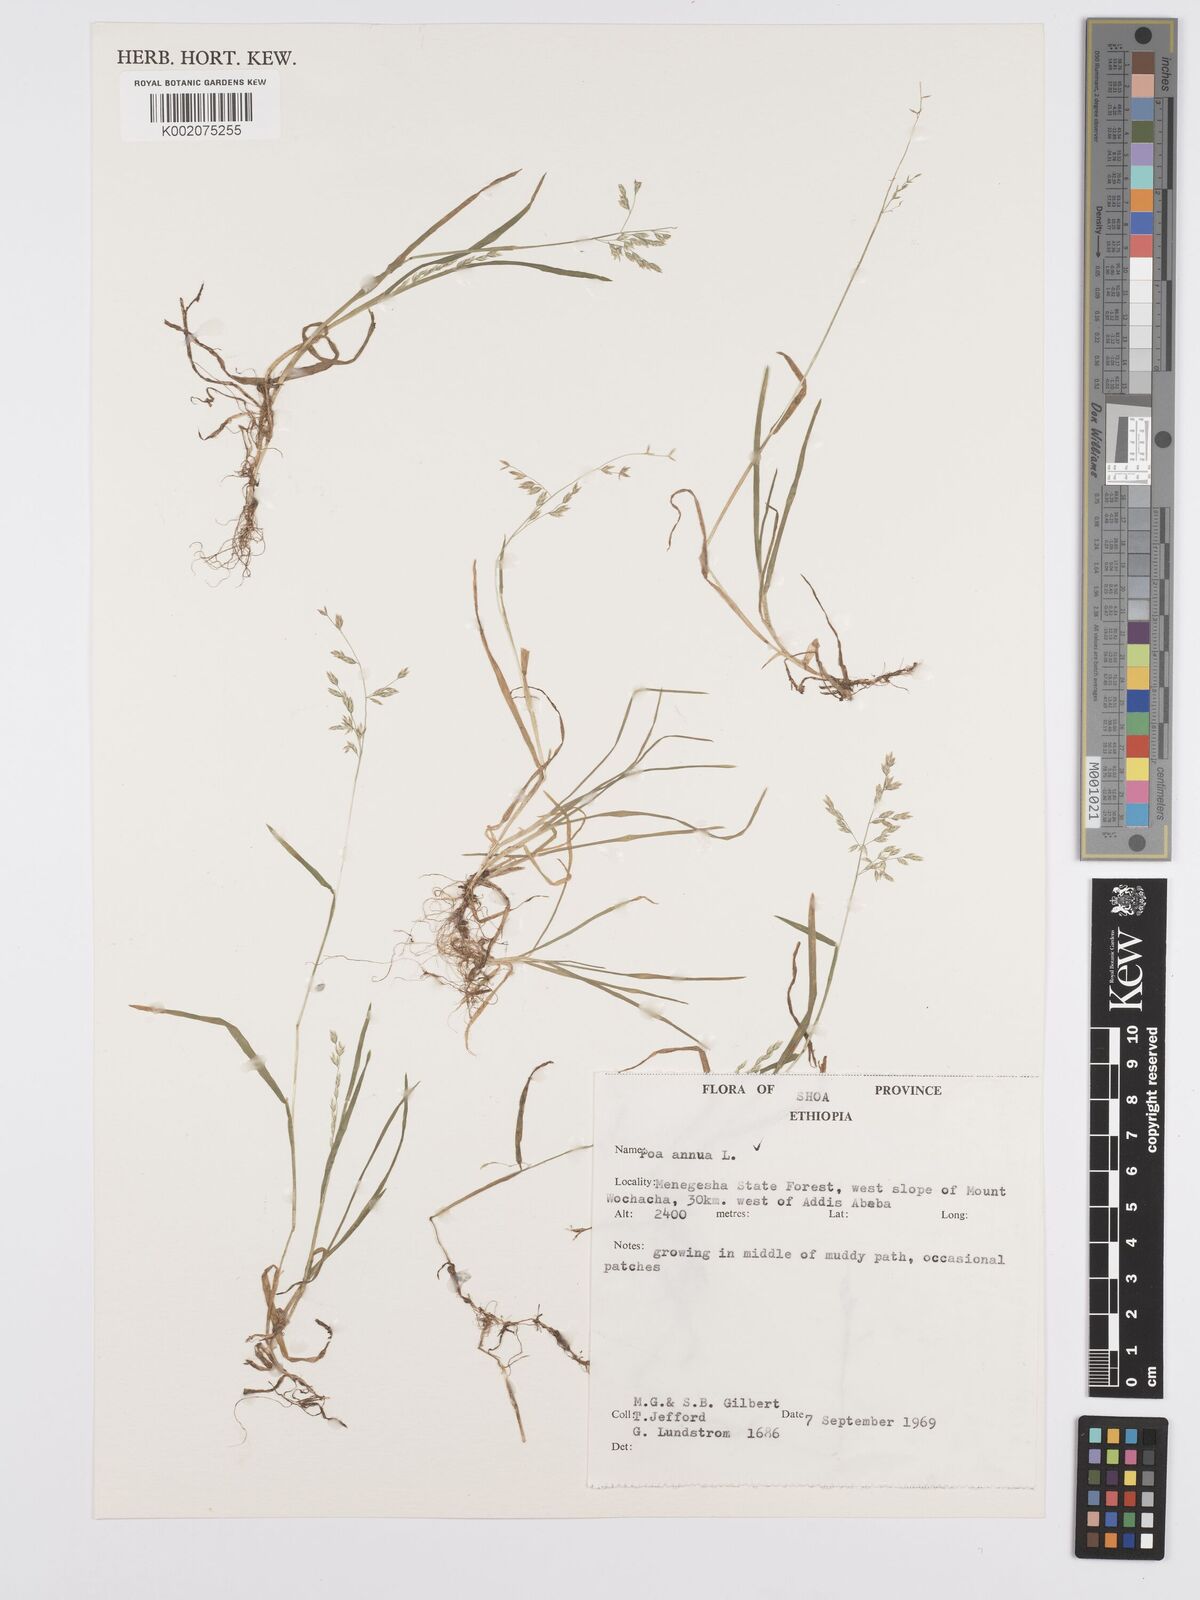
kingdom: Plantae
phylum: Tracheophyta
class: Liliopsida
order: Poales
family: Poaceae
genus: Poa
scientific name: Poa annua
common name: Annual bluegrass
